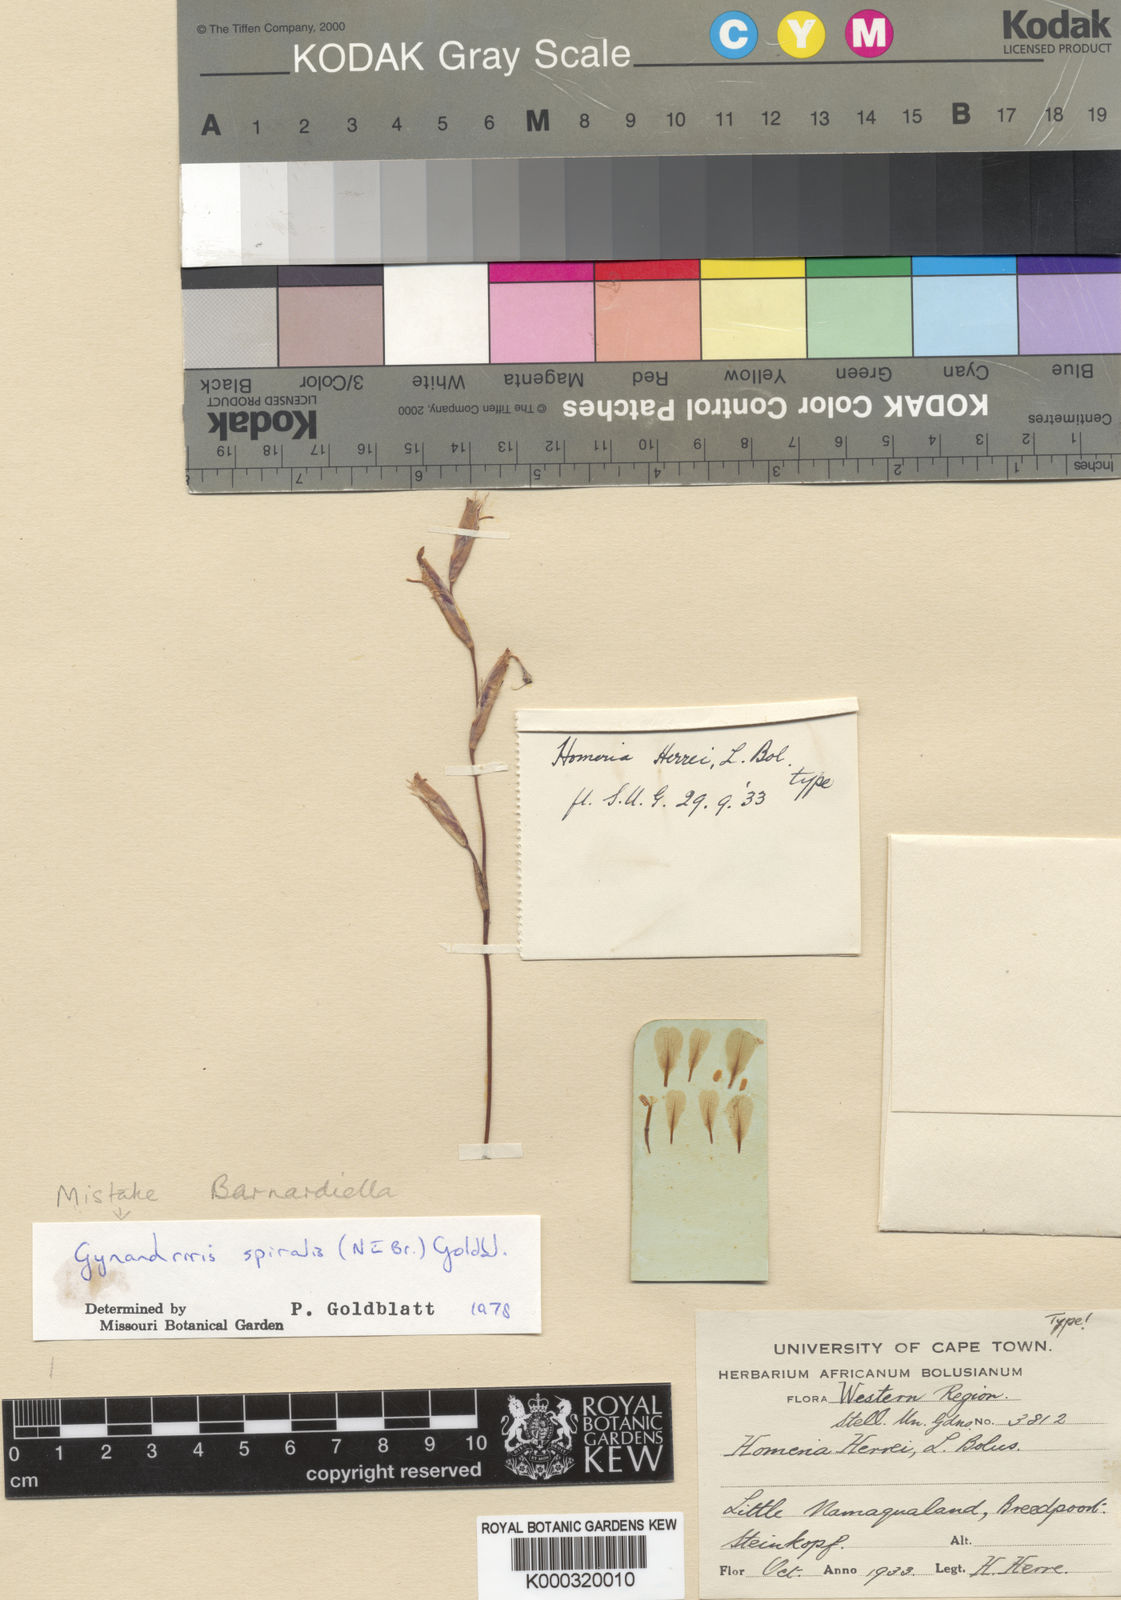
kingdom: Plantae
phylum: Tracheophyta
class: Liliopsida
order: Asparagales
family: Iridaceae
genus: Moraea
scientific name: Moraea herrei
